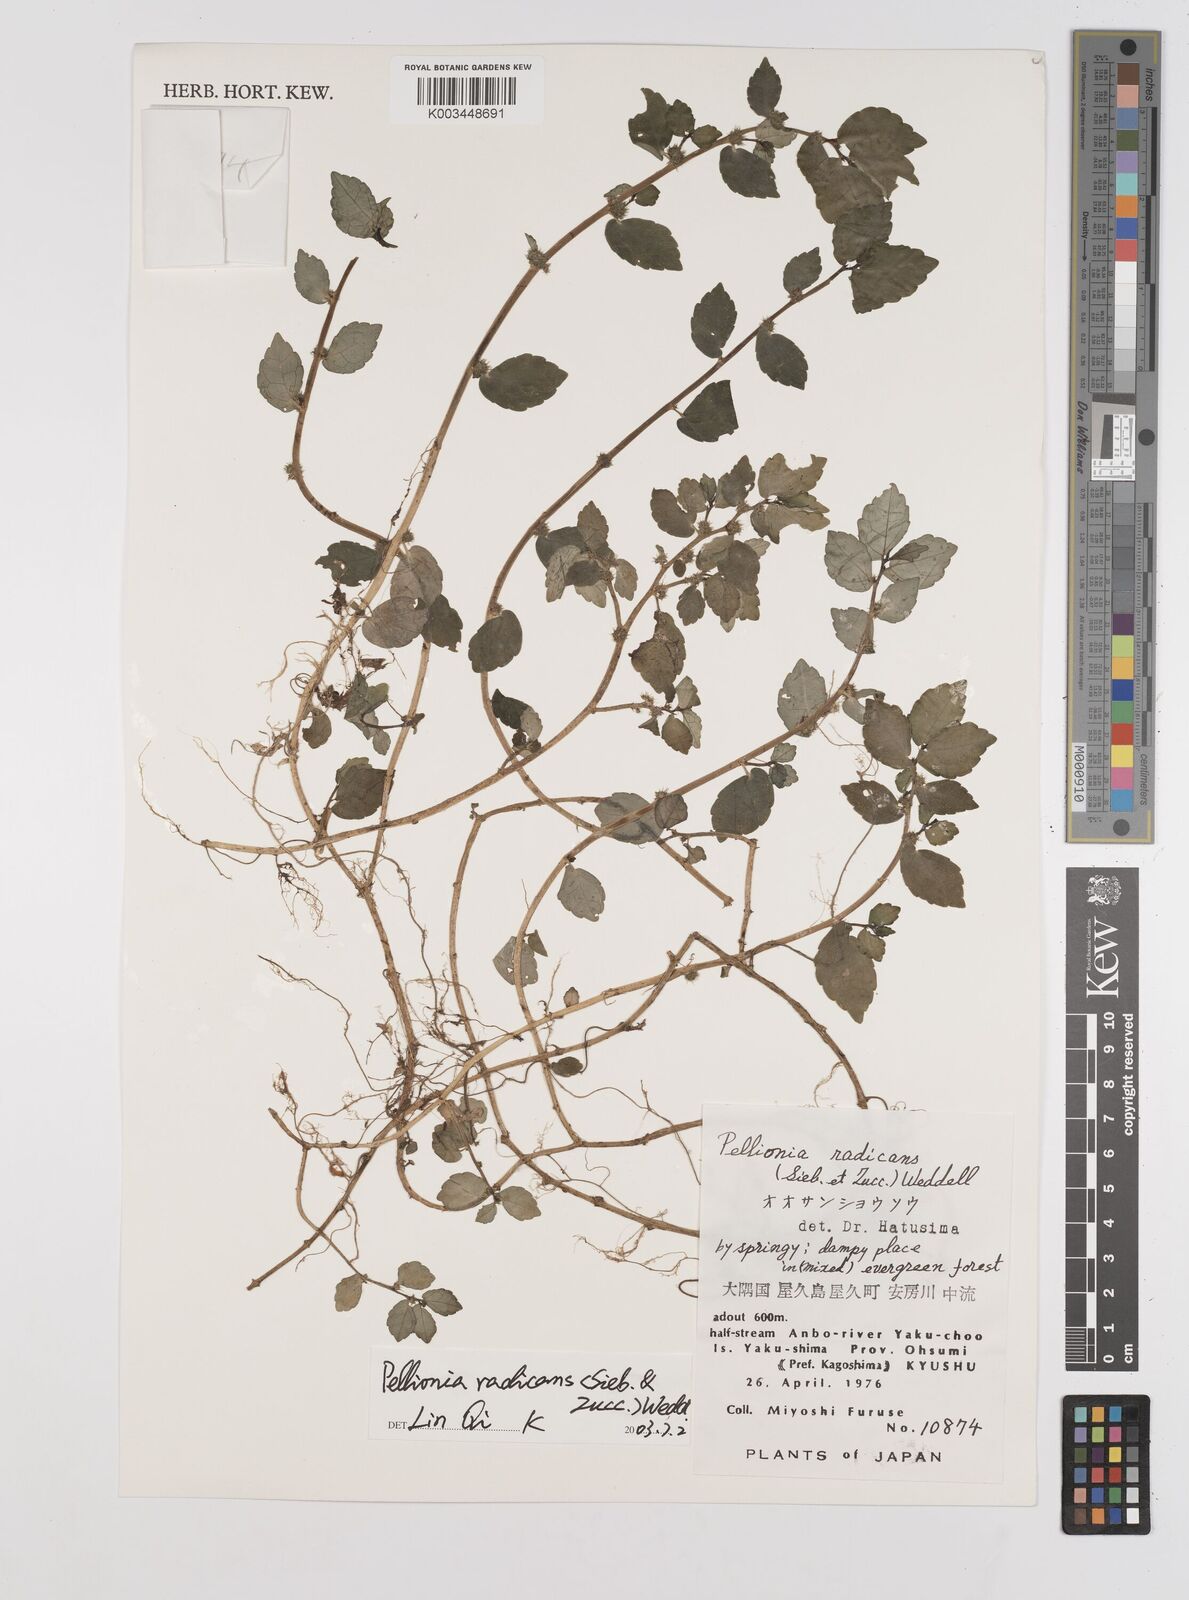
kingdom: Plantae
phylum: Tracheophyta
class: Magnoliopsida
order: Rosales
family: Urticaceae
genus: Elatostema
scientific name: Elatostema radicans
